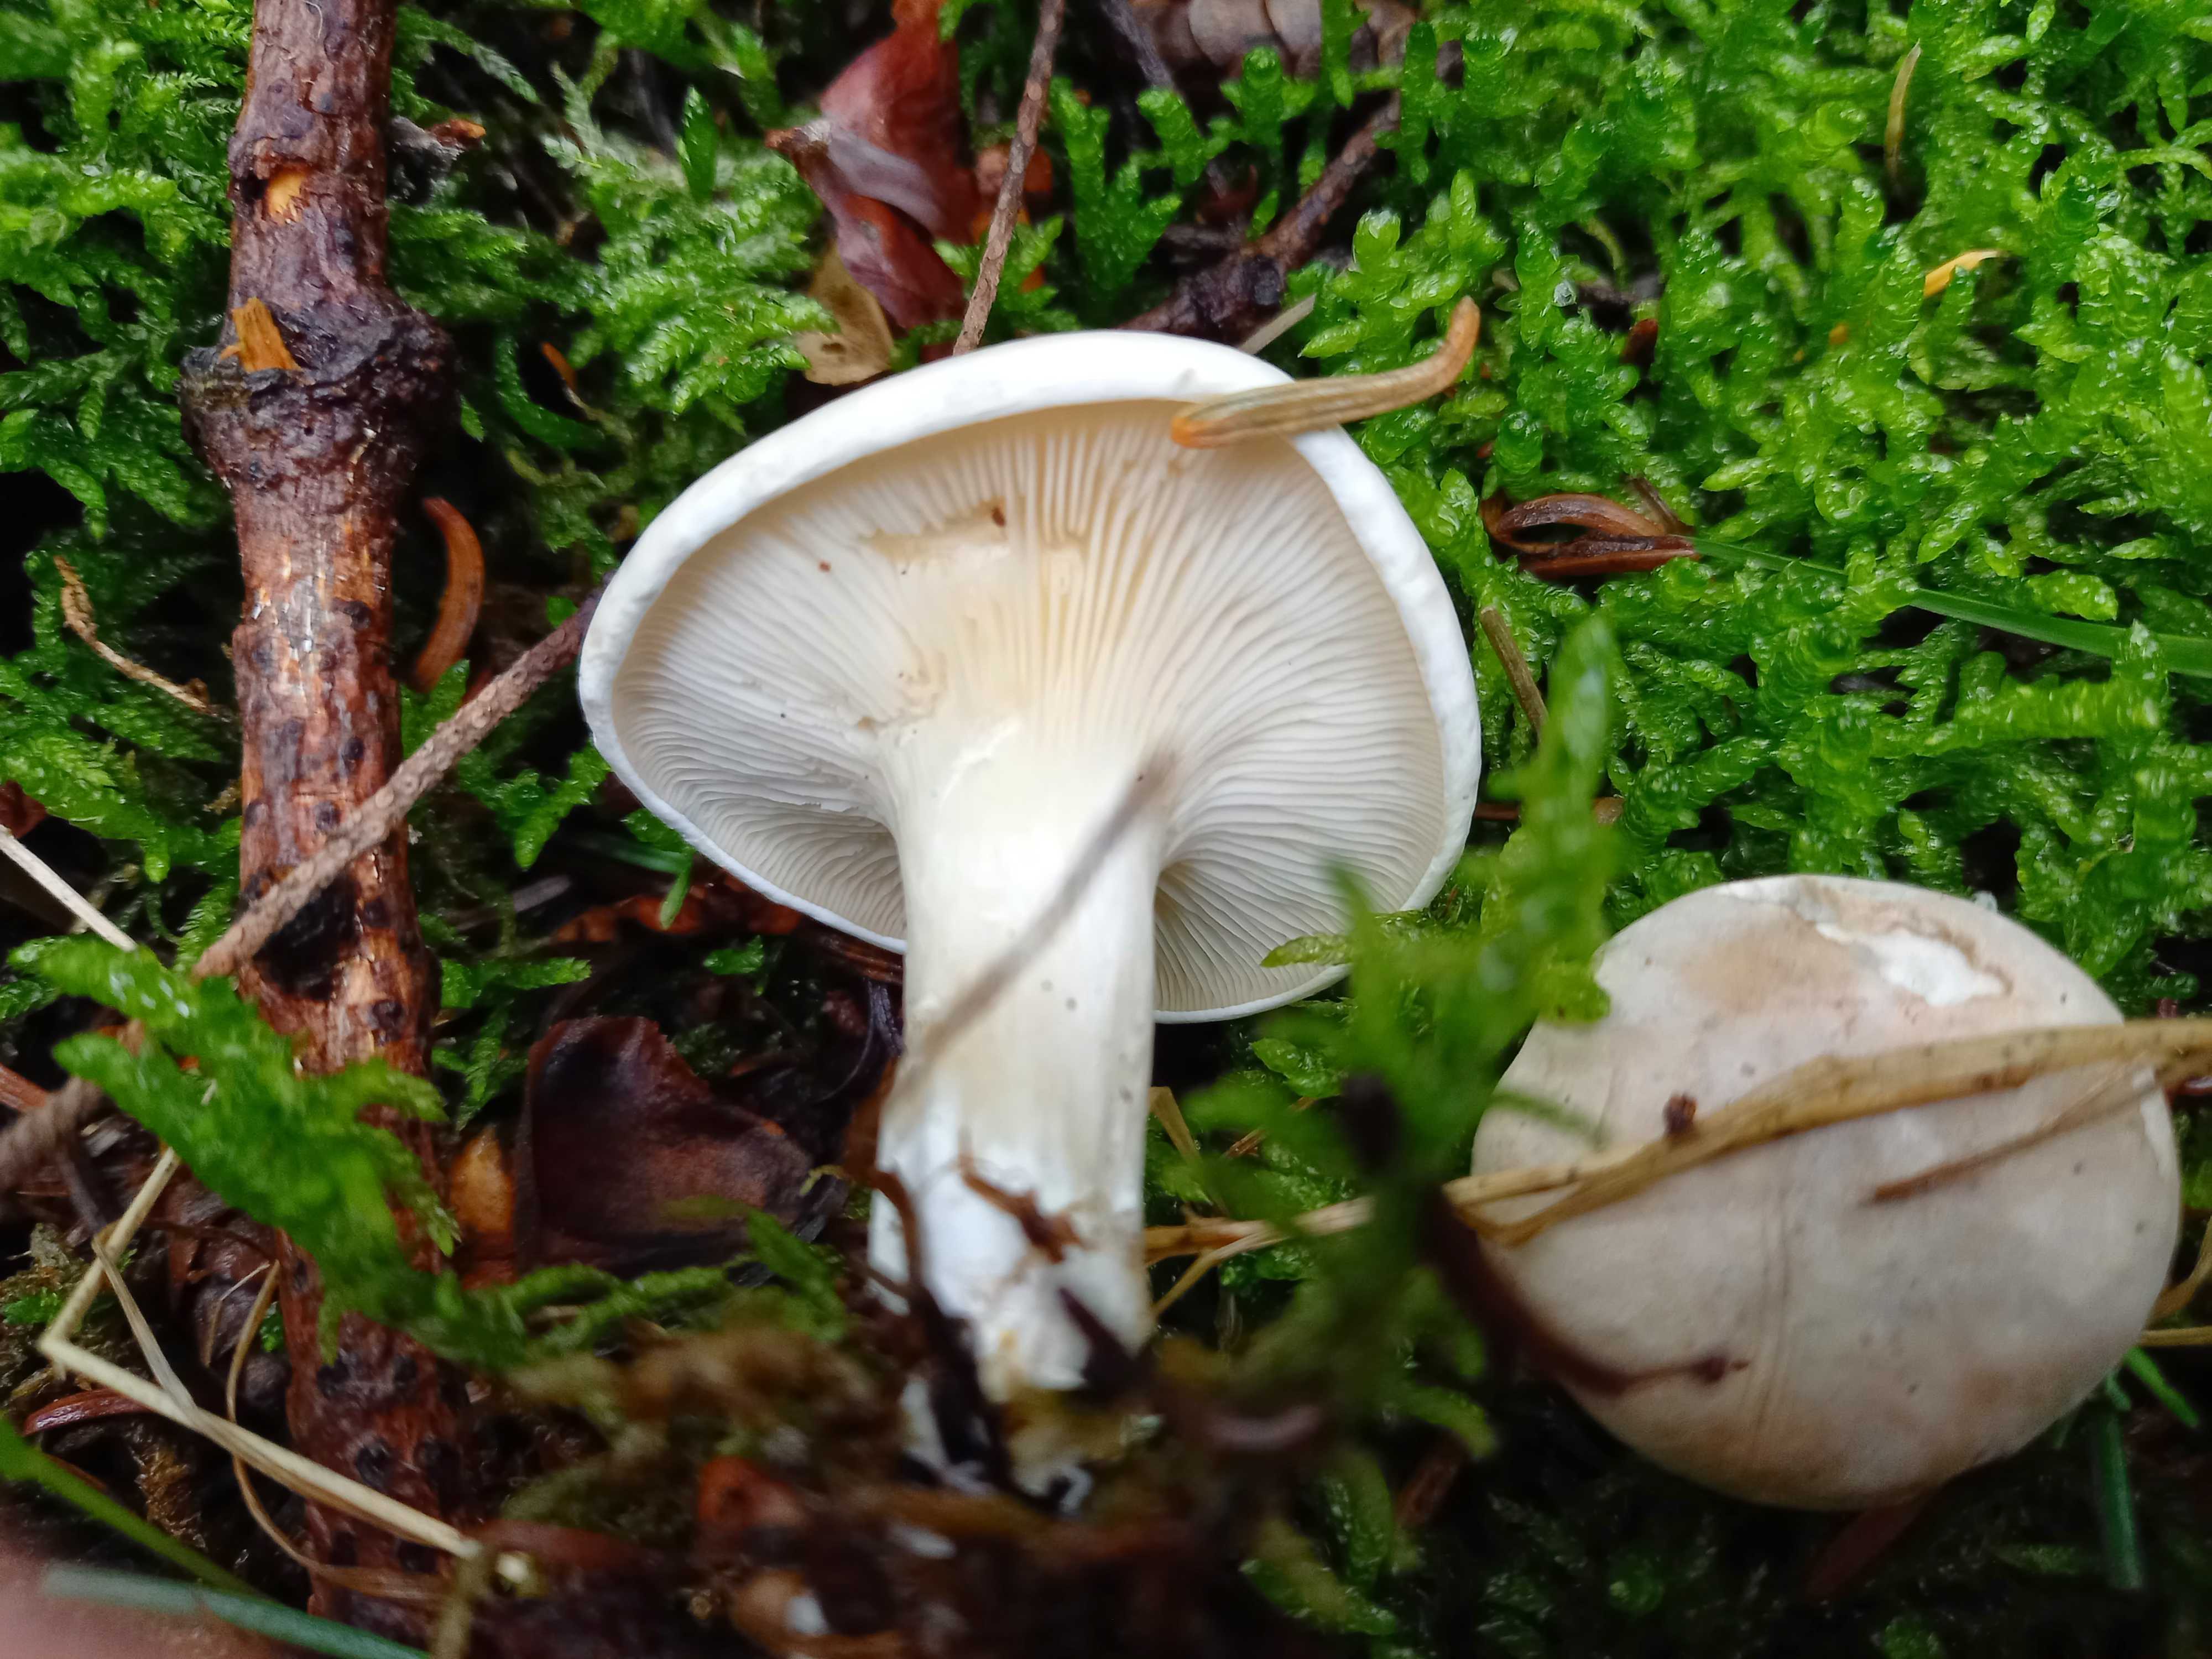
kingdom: Fungi
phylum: Basidiomycota
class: Agaricomycetes
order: Agaricales
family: Entolomataceae
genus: Clitopilus
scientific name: Clitopilus prunulus
